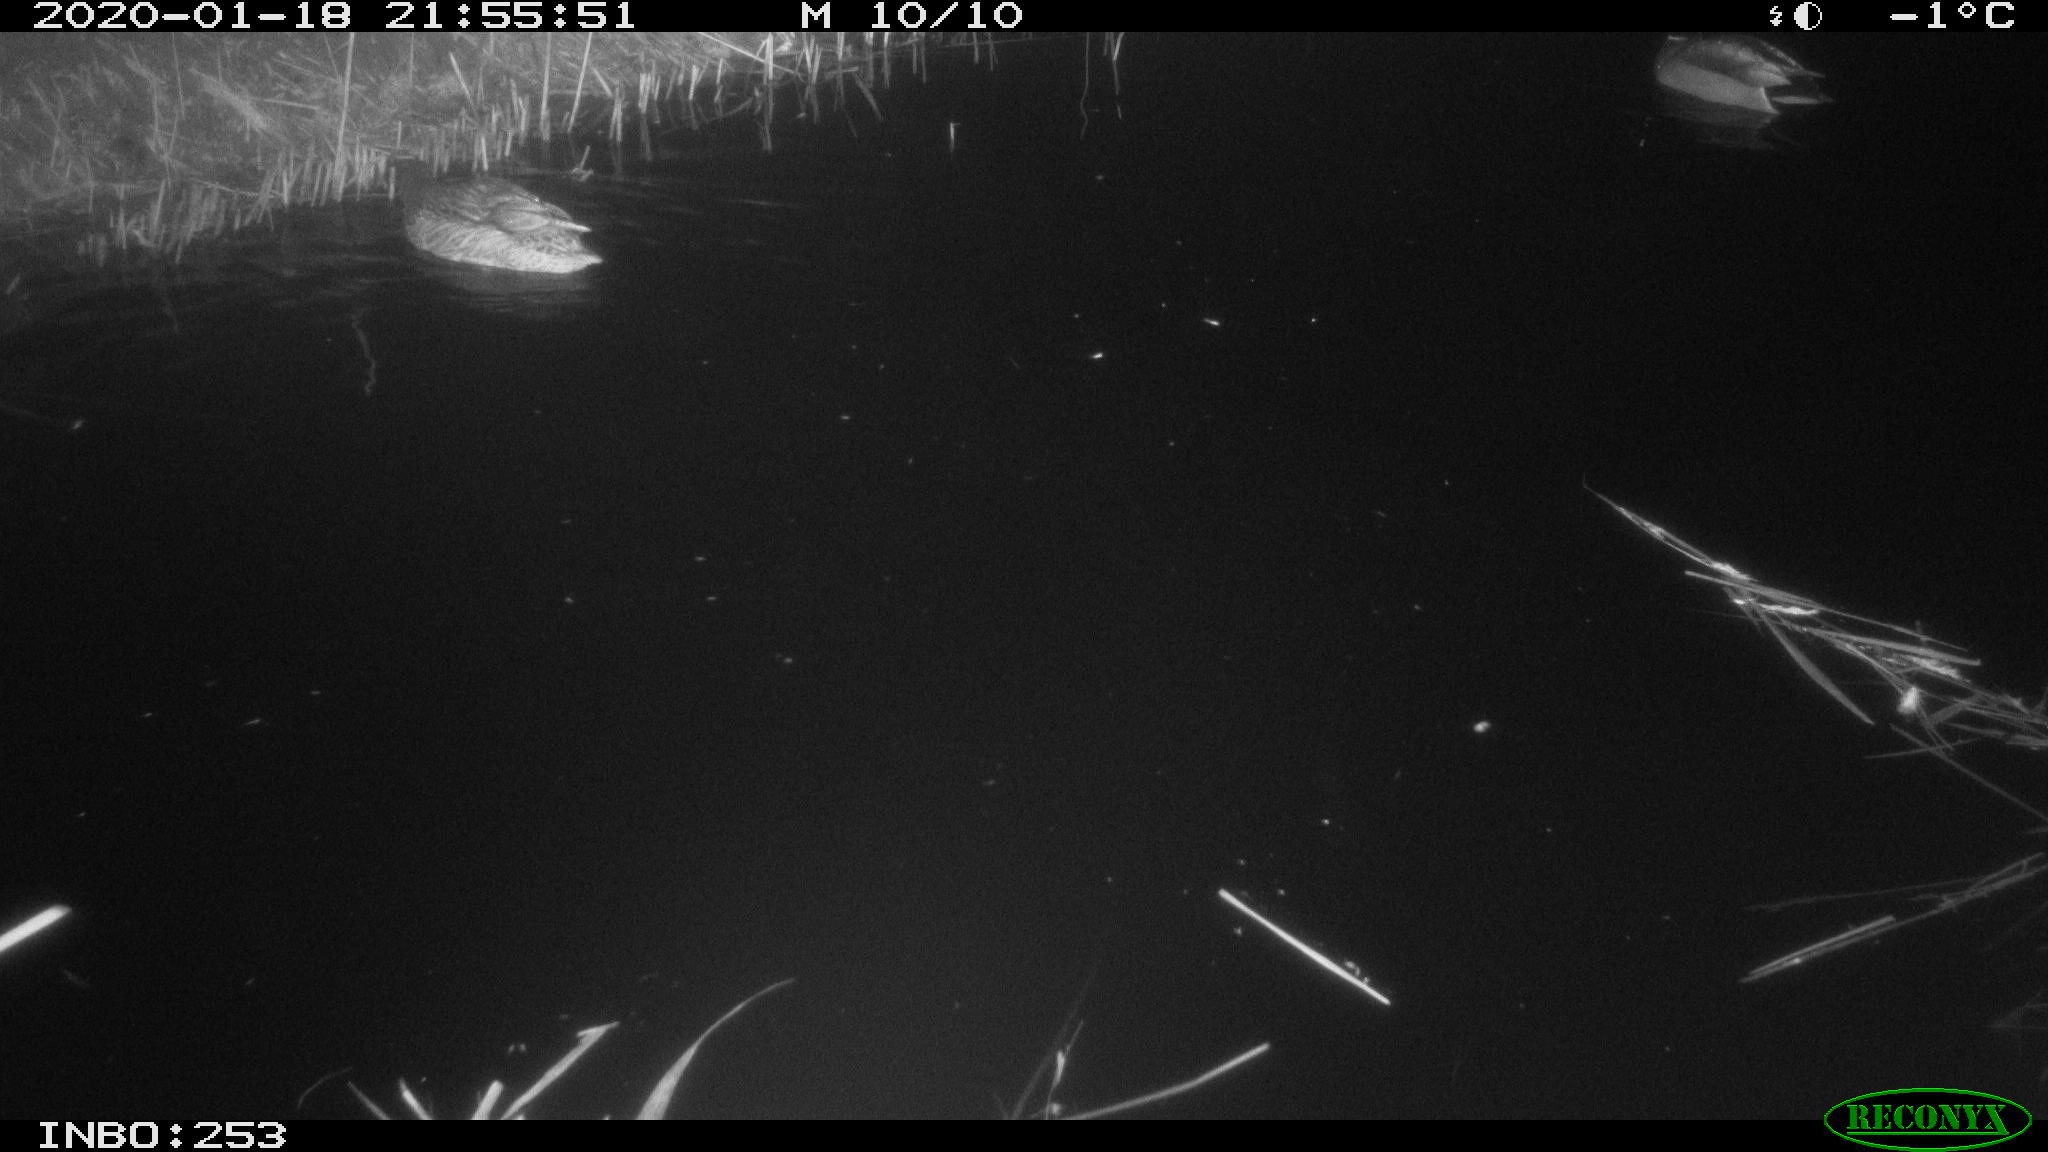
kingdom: Animalia
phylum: Chordata
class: Aves
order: Anseriformes
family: Anatidae
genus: Anas
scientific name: Anas platyrhynchos
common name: Mallard
